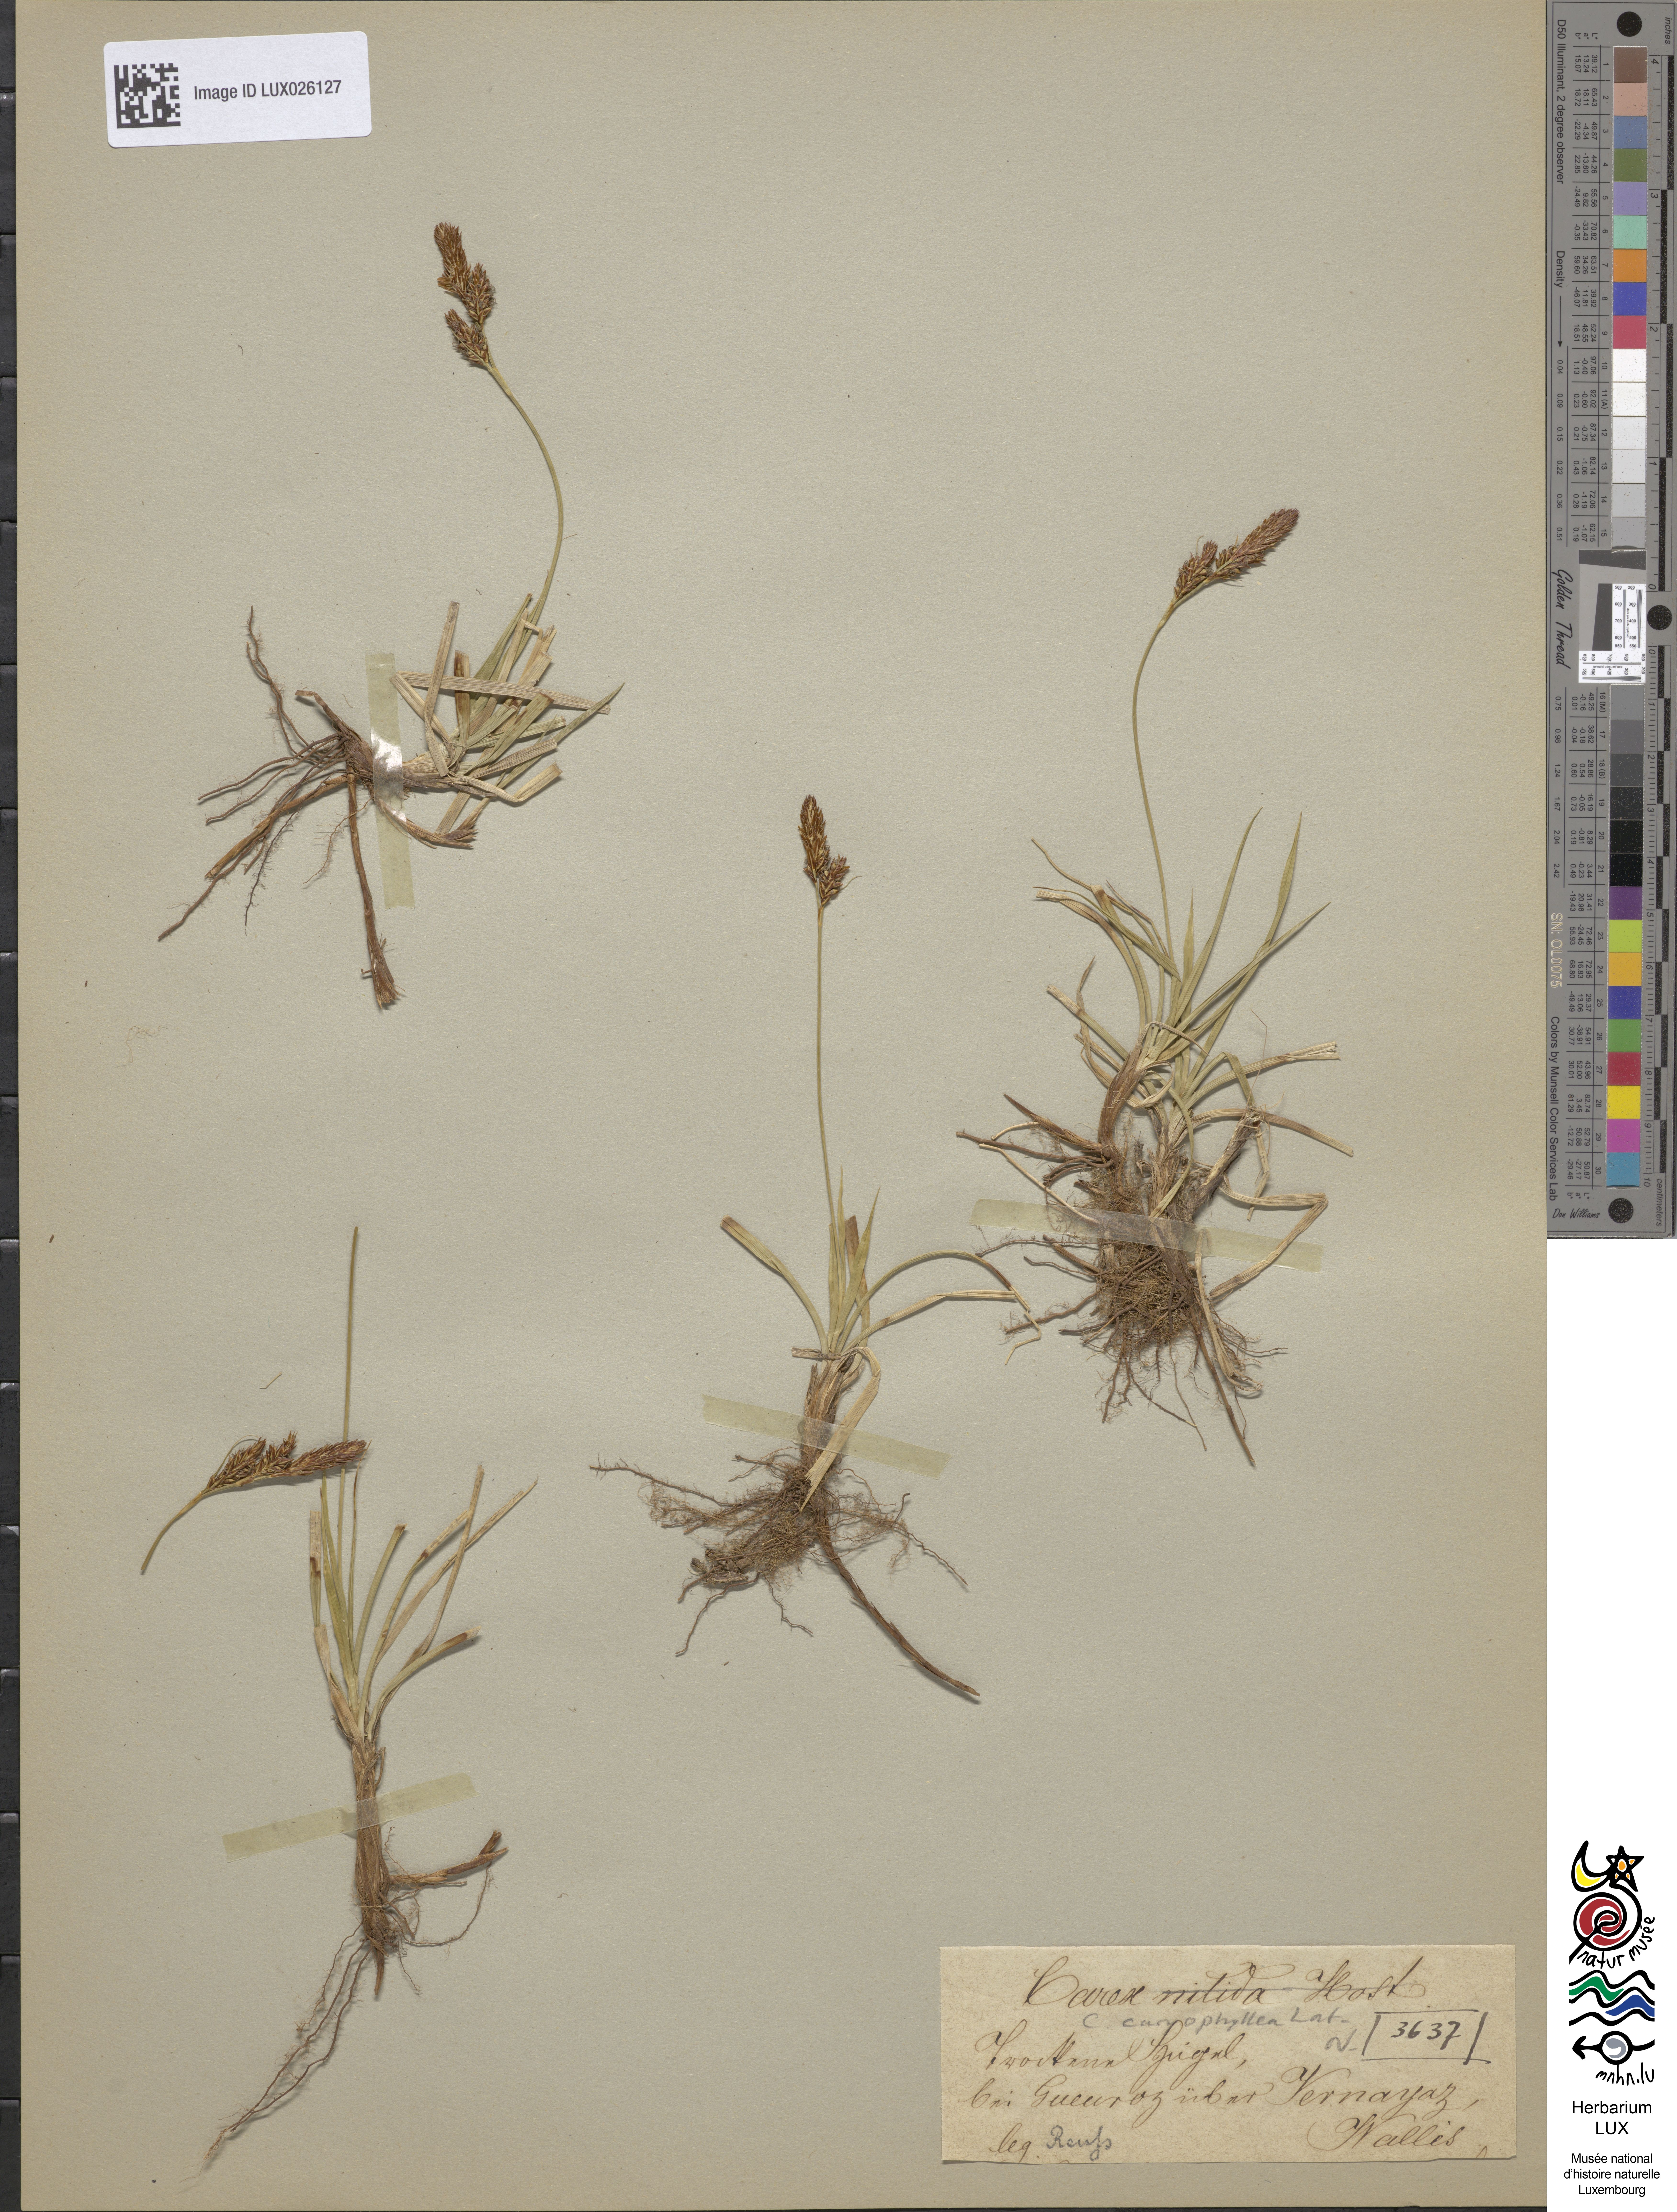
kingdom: Plantae
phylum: Tracheophyta
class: Liliopsida
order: Poales
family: Cyperaceae
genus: Carex
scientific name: Carex caryophyllea
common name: Spring sedge
